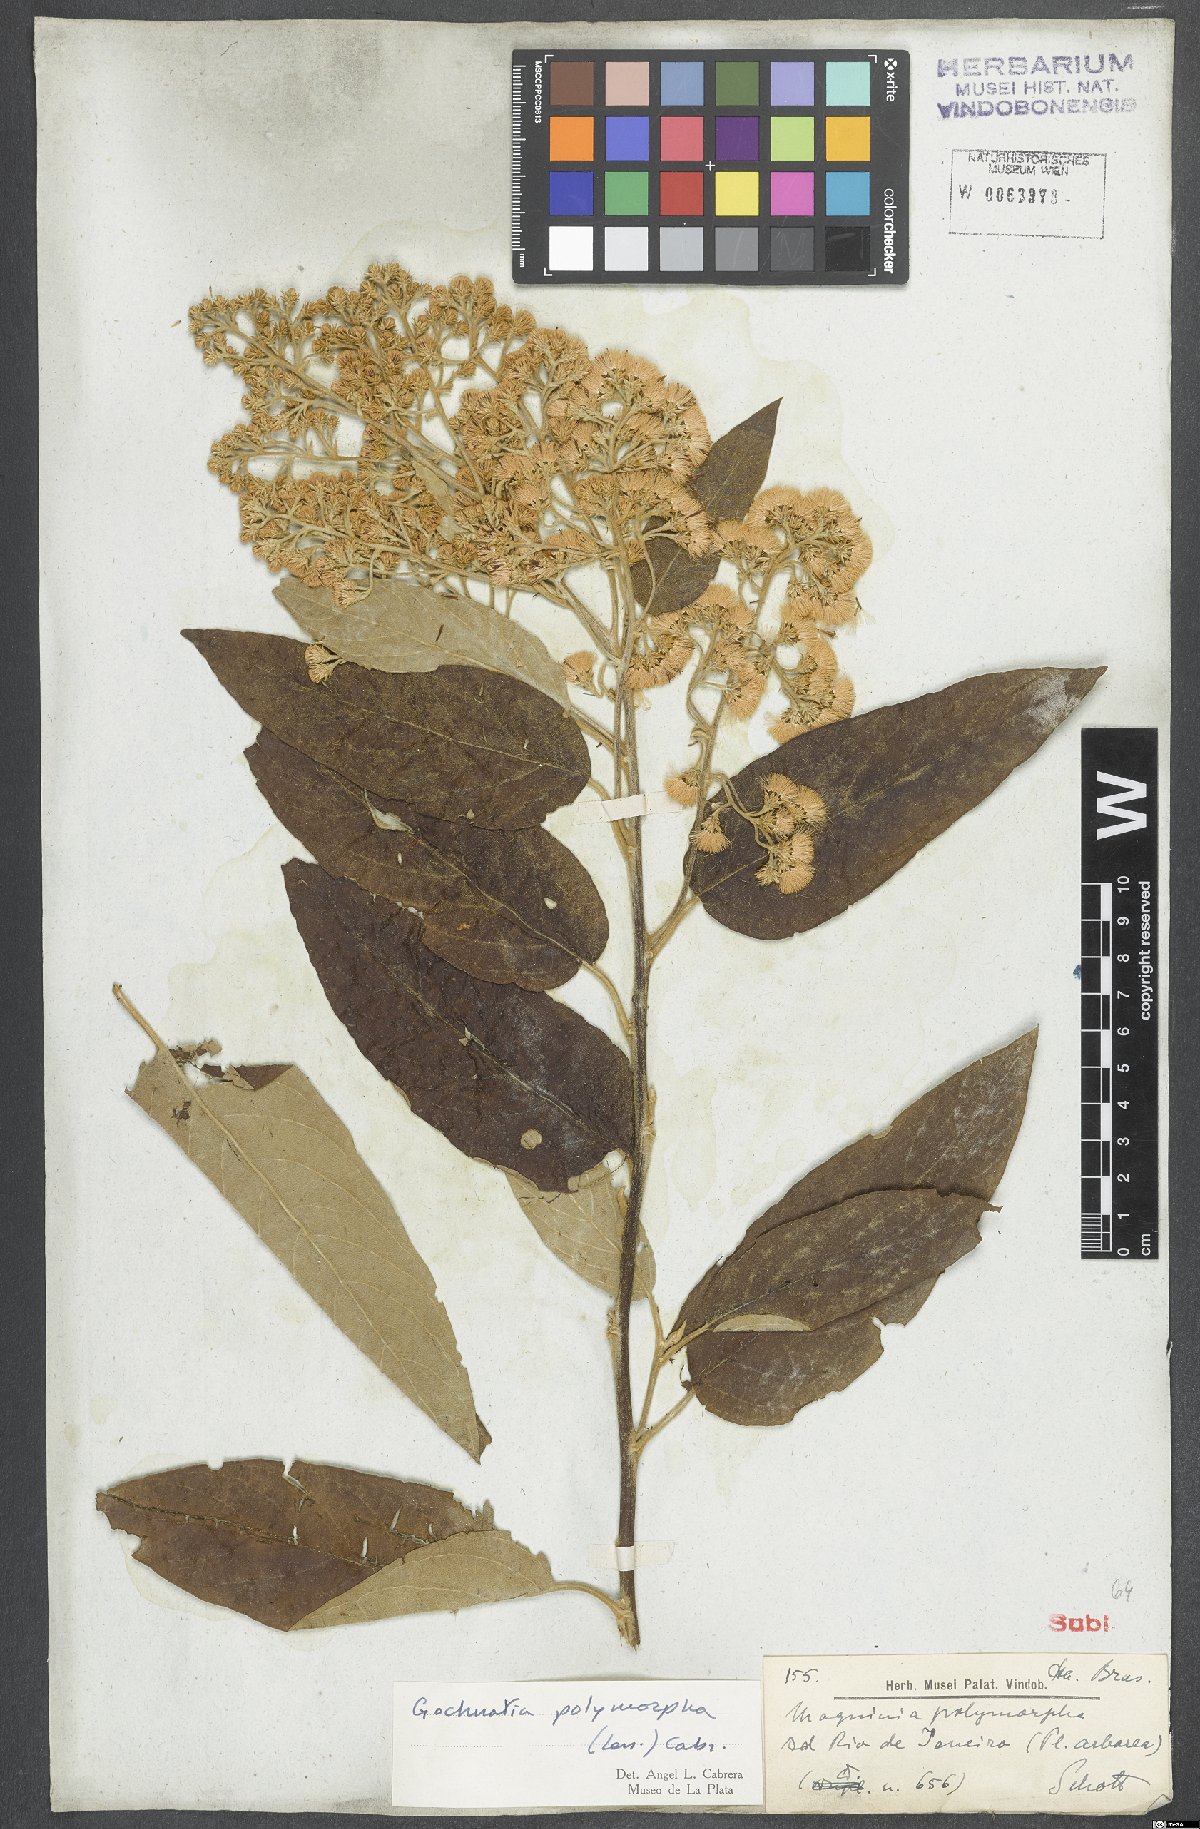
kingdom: Plantae
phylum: Tracheophyta
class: Magnoliopsida
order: Asterales
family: Asteraceae
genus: Moquiniastrum
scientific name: Moquiniastrum polymorphum
